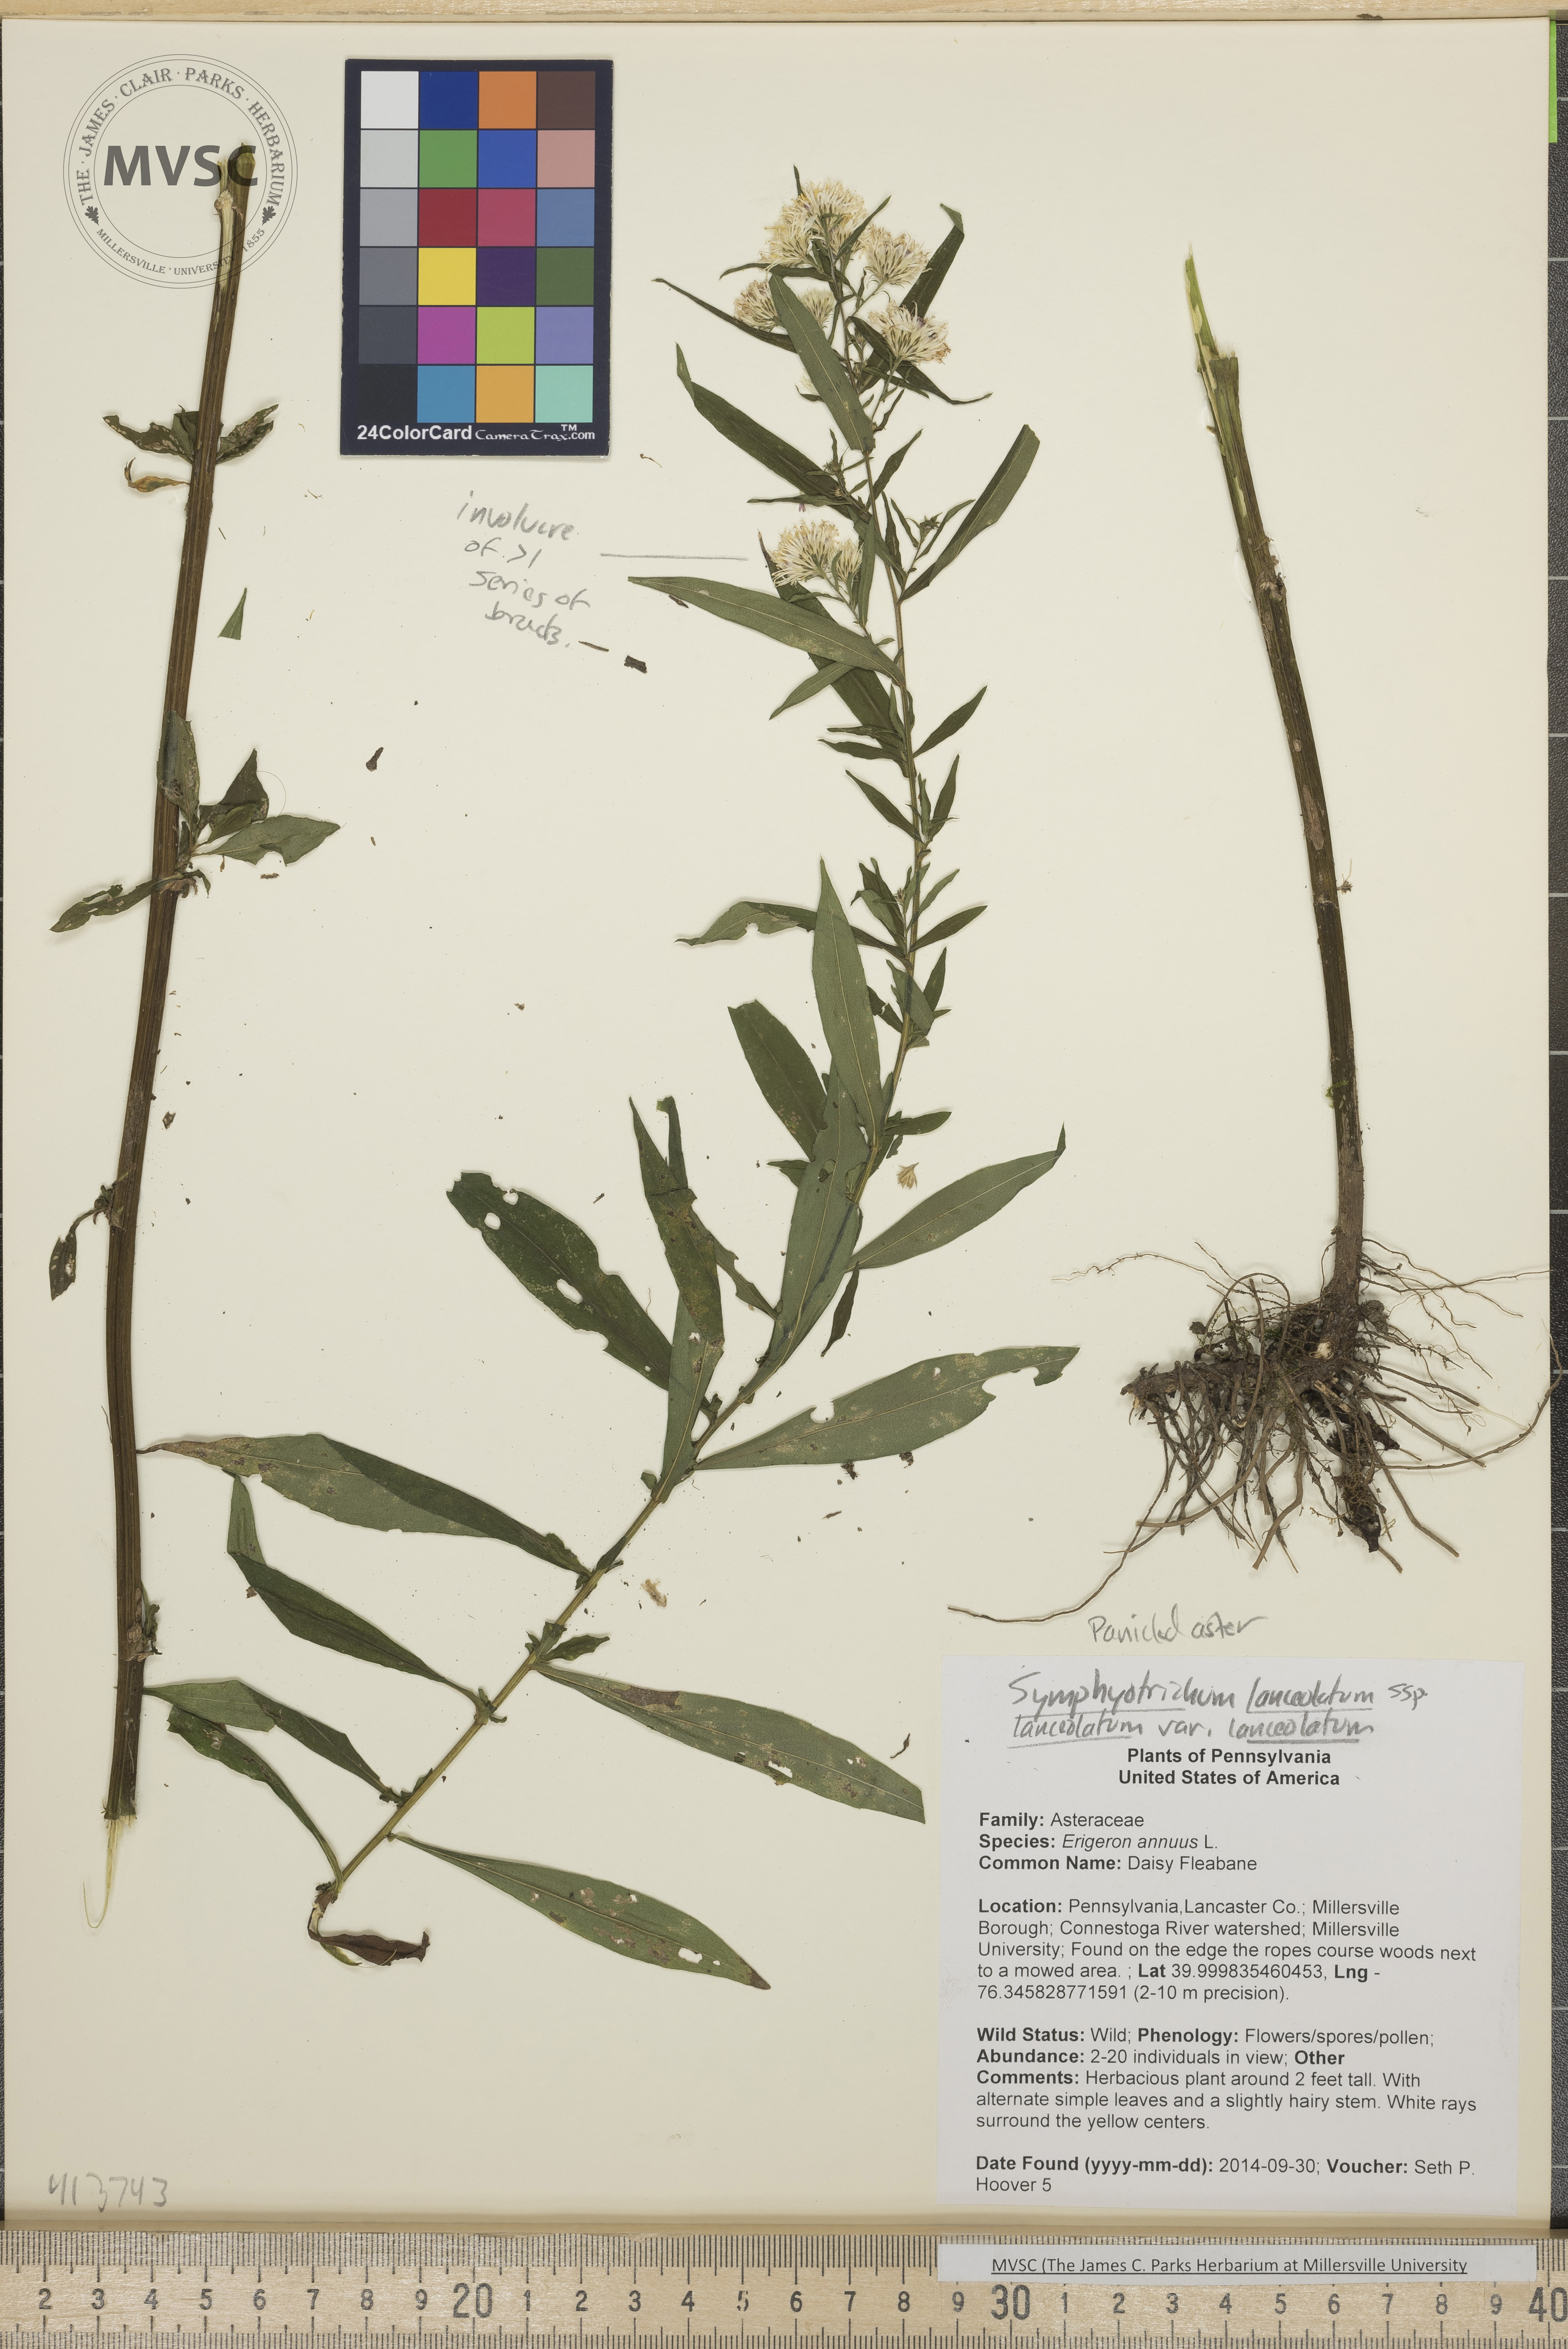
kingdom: Plantae
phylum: Tracheophyta
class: Magnoliopsida
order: Asterales
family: Asteraceae
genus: Symphyotrichum
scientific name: Symphyotrichum lanceolatum
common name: Panicled aster
